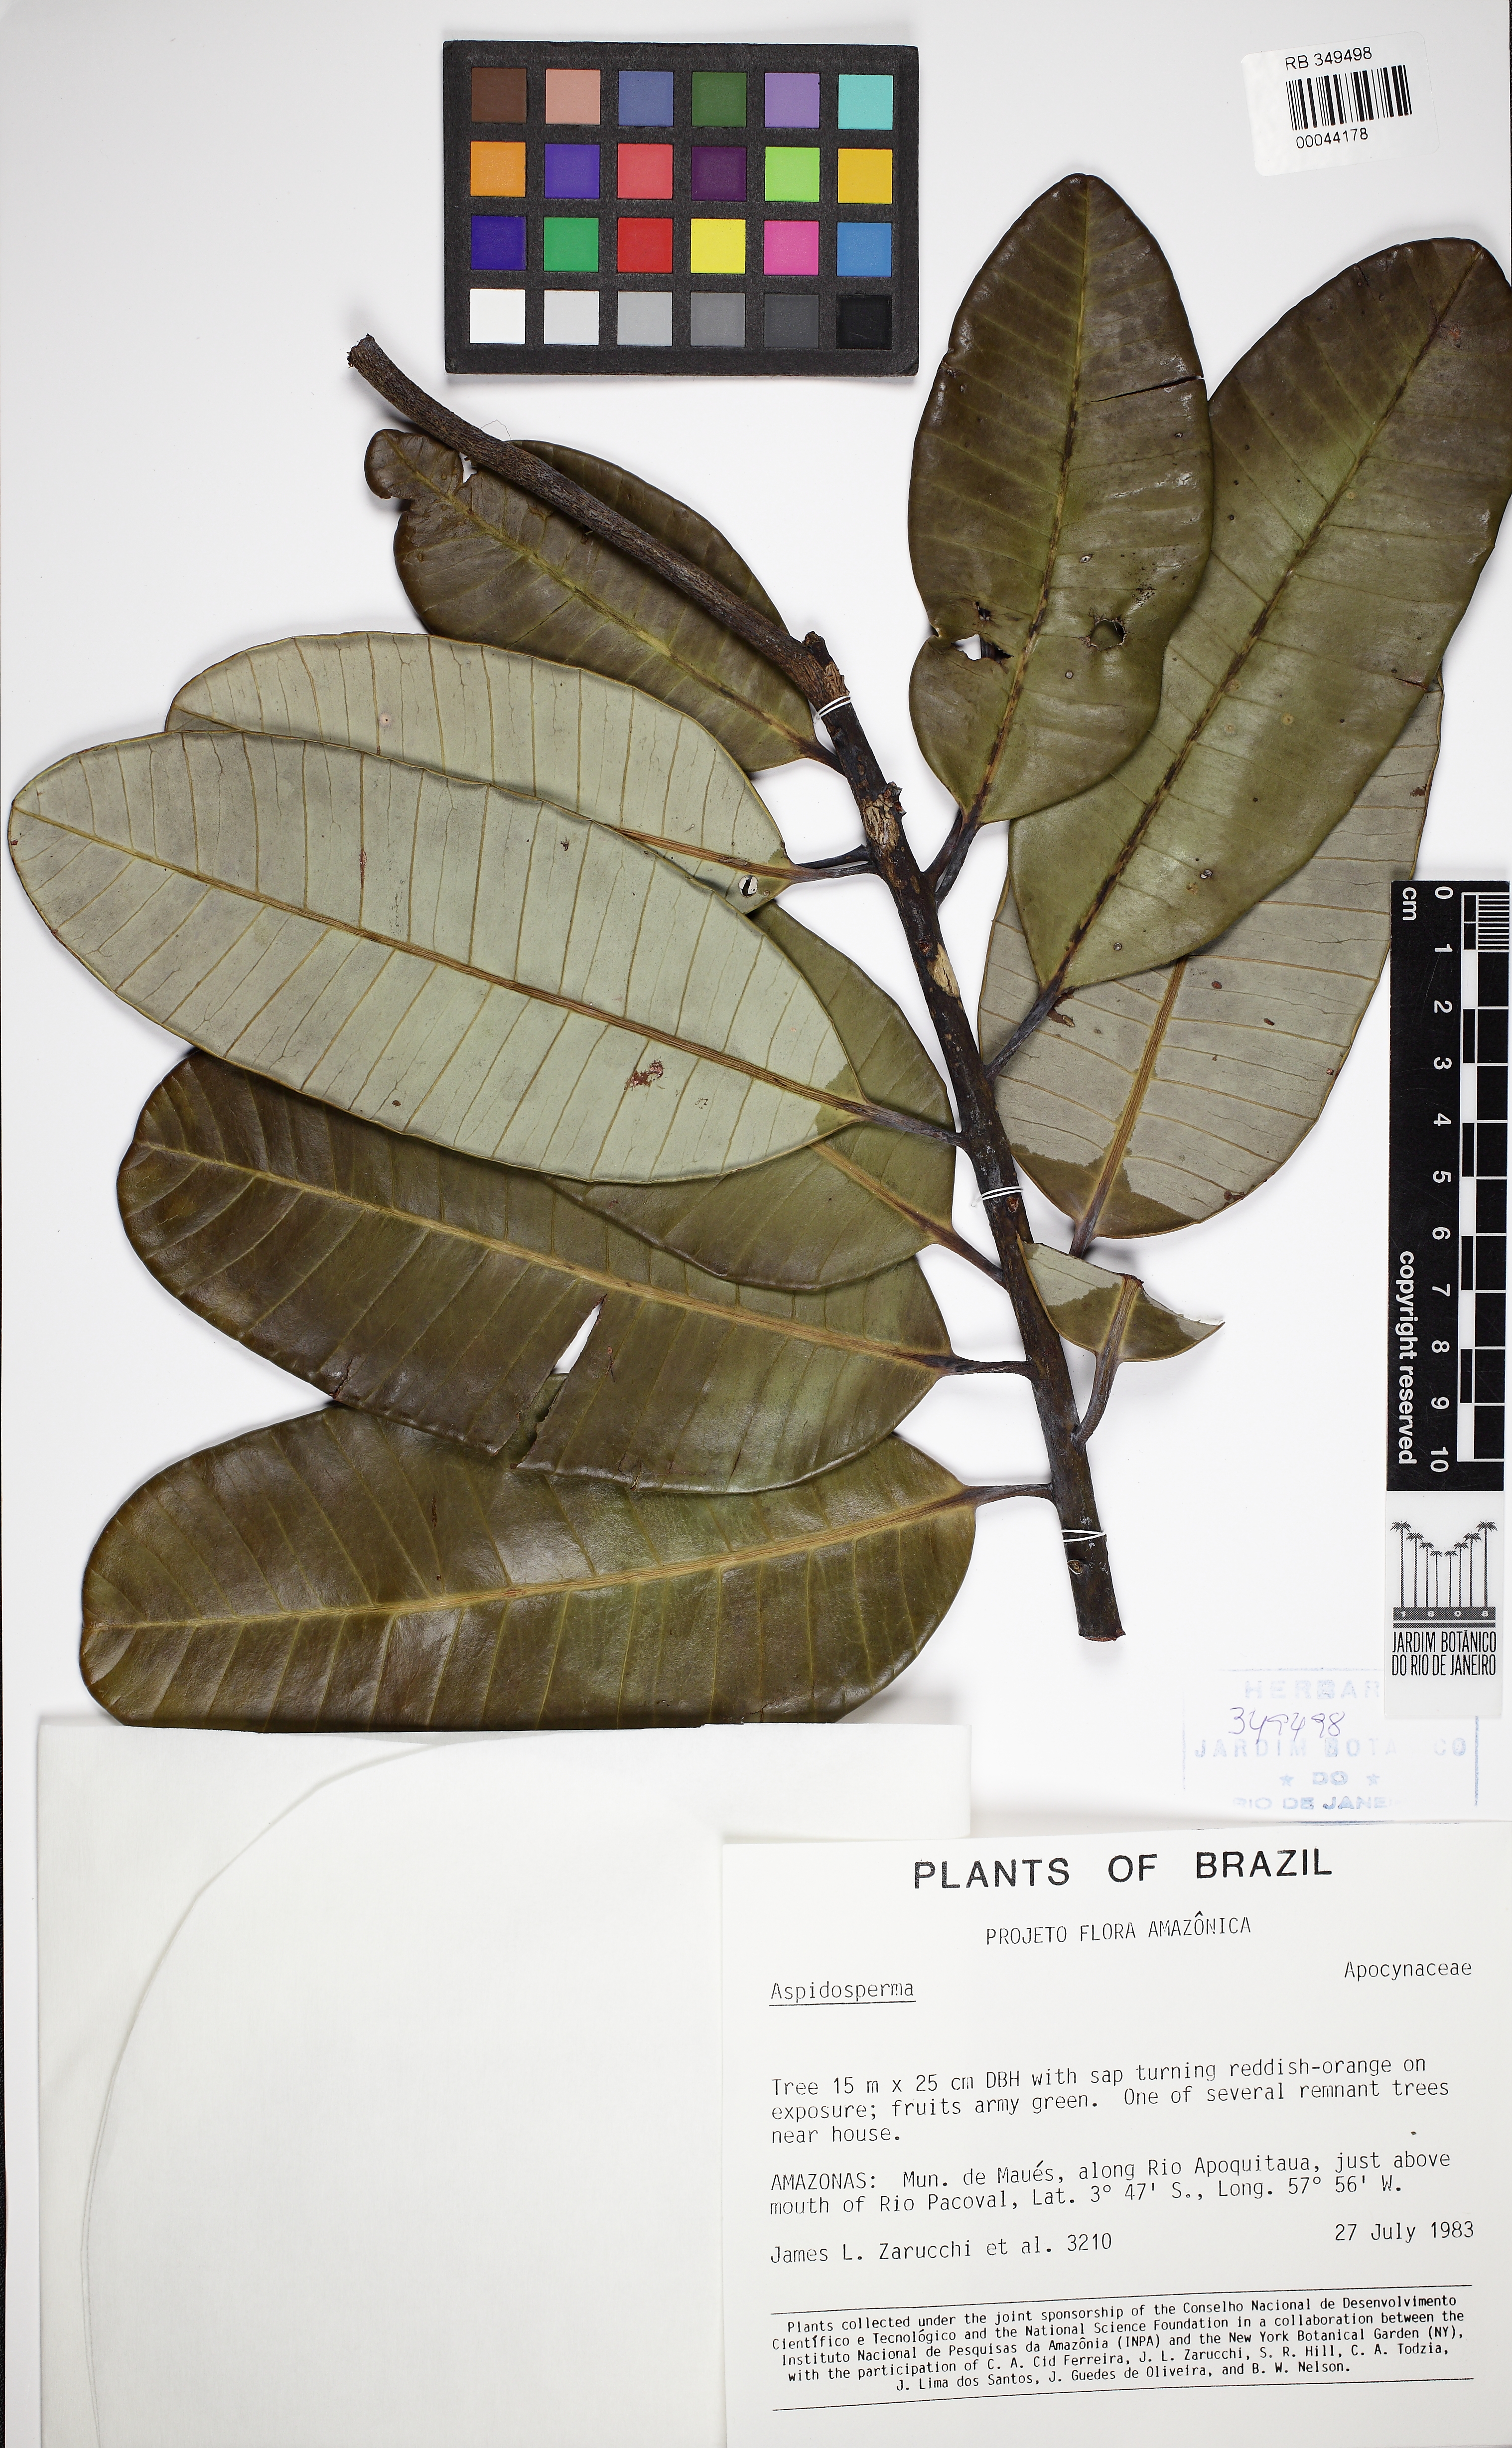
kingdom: Plantae
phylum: Tracheophyta
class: Magnoliopsida
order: Gentianales
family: Apocynaceae
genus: Aspidosperma
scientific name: Aspidosperma album
